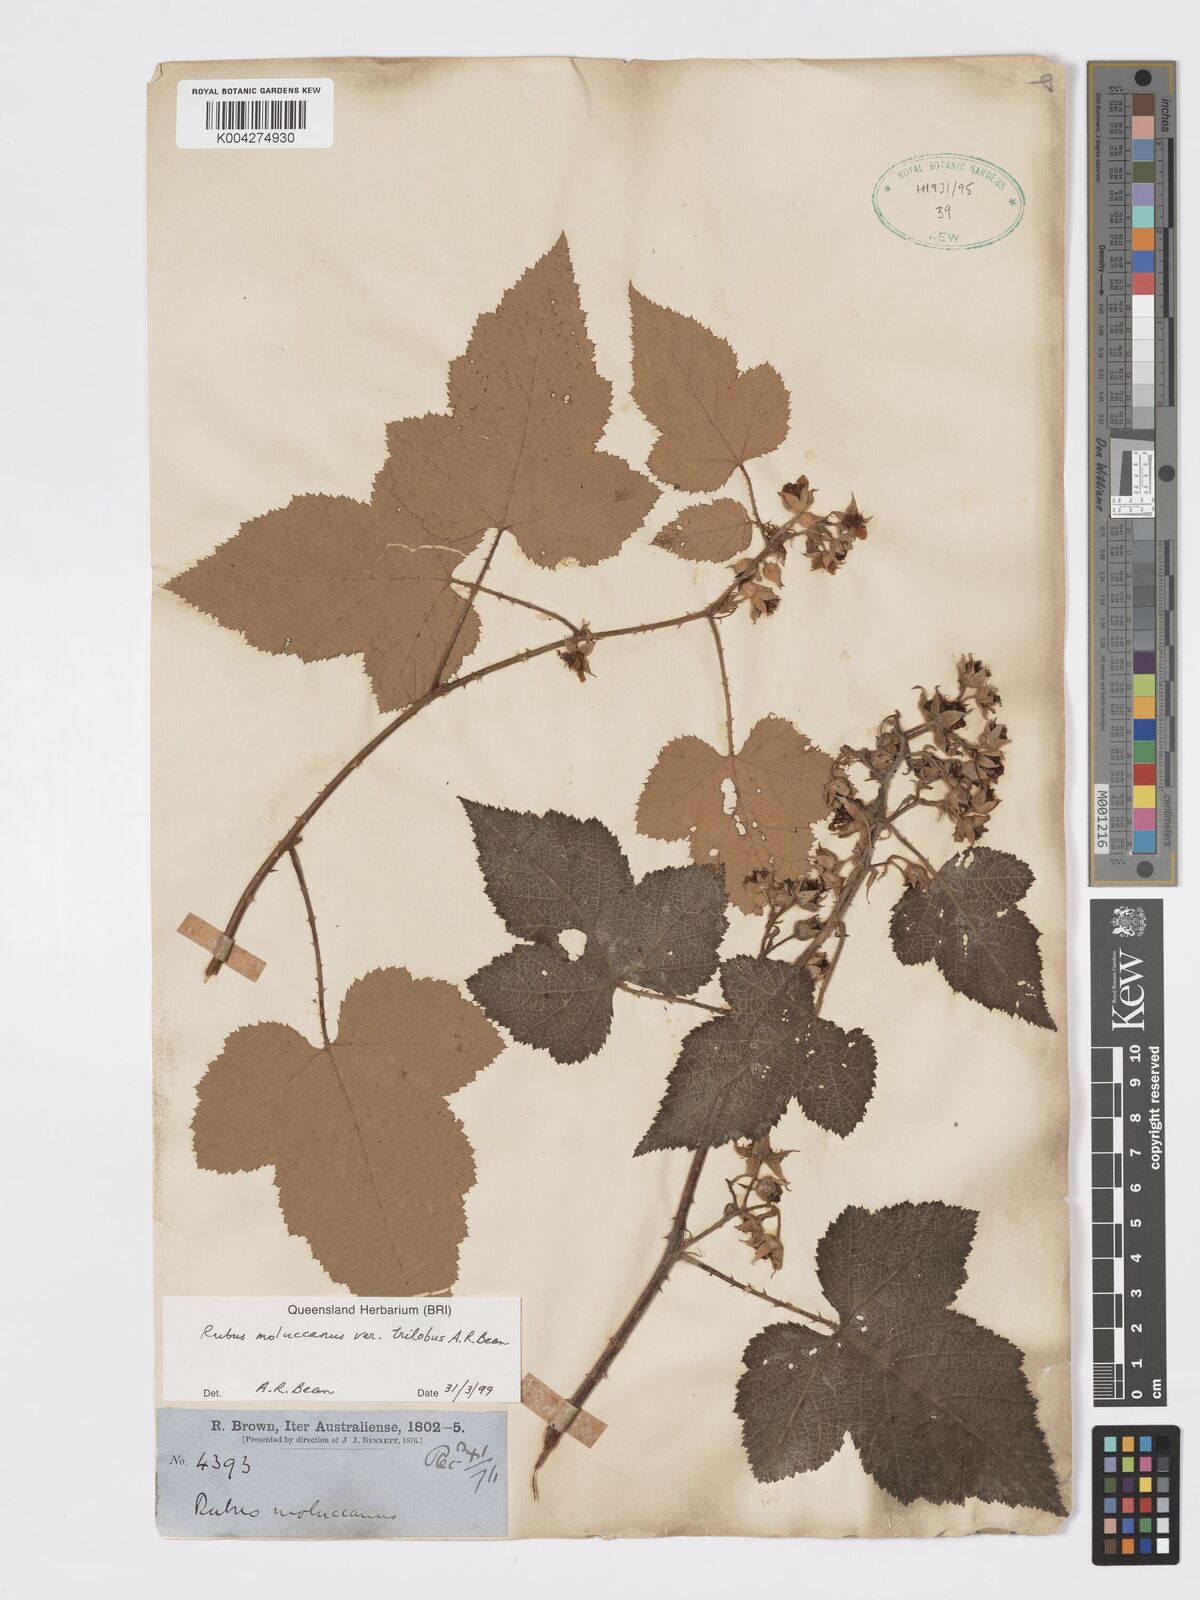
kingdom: Plantae
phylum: Tracheophyta
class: Magnoliopsida
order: Rosales
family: Rosaceae
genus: Rubus
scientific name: Rubus moluccanus
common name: Wild raspberry
